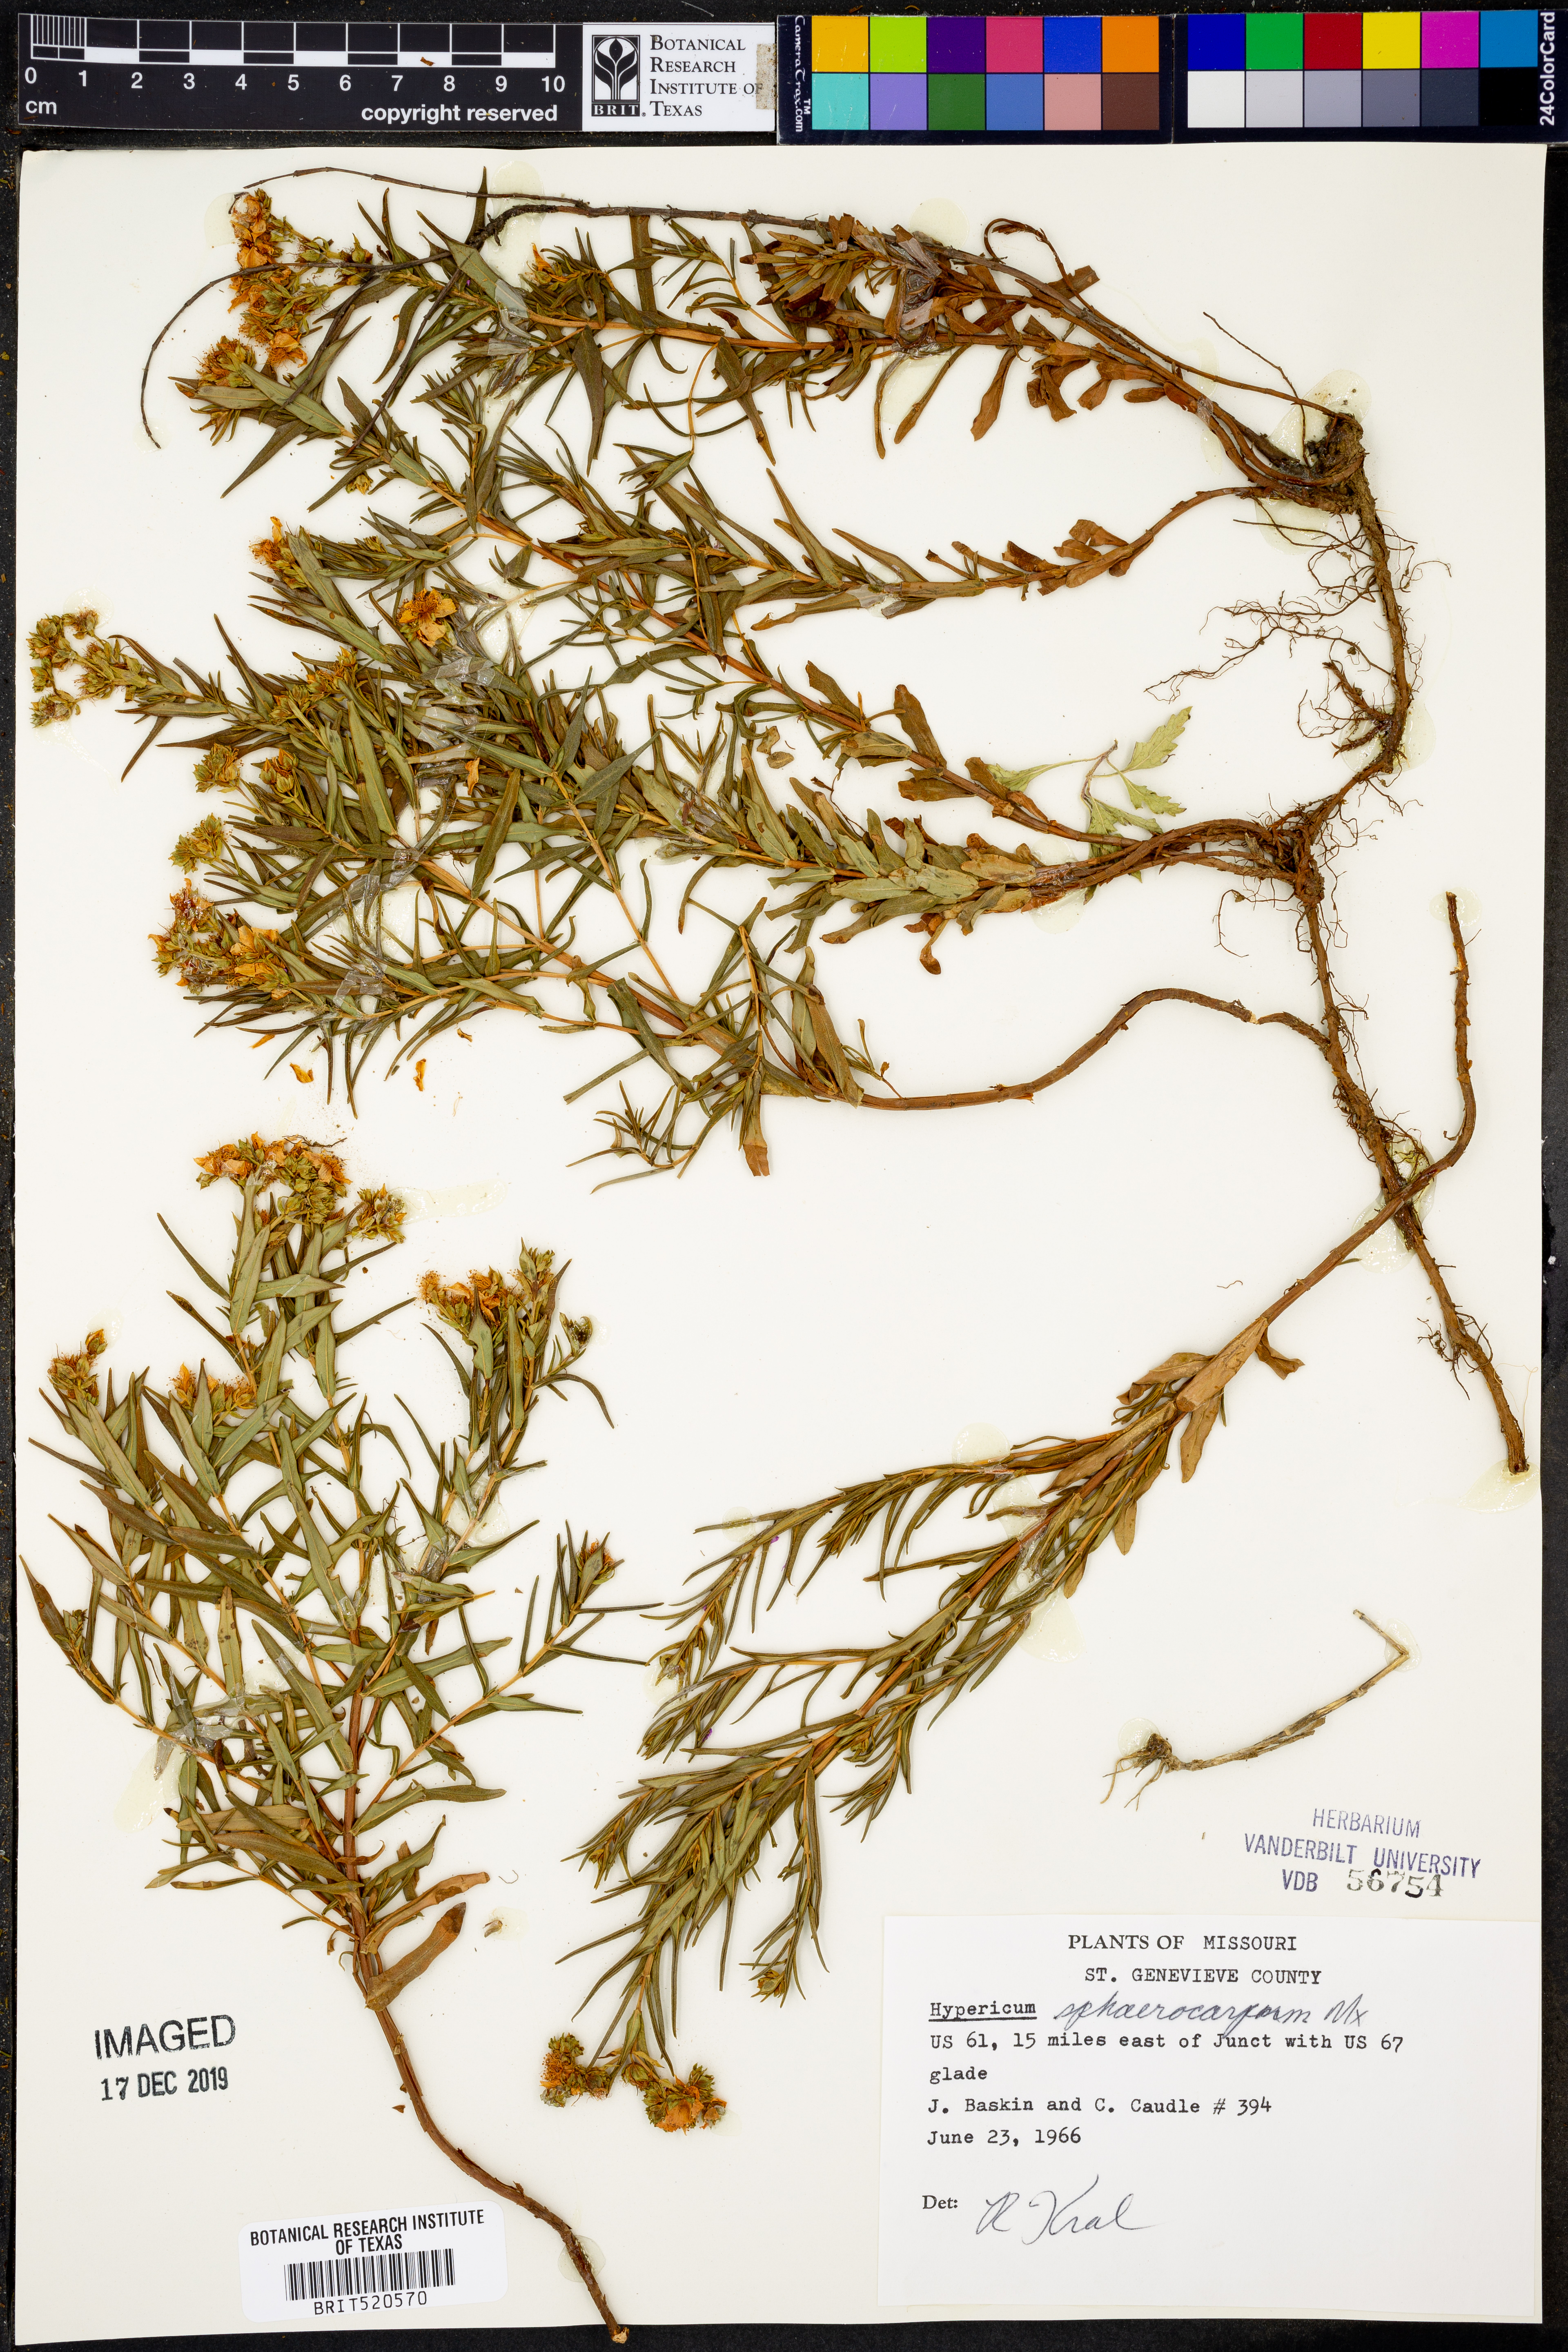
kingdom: Plantae
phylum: Tracheophyta
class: Magnoliopsida
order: Malpighiales
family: Hypericaceae
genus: Hypericum
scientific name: Hypericum sphaerocarpum
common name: Round-fruited st. john's-wort
